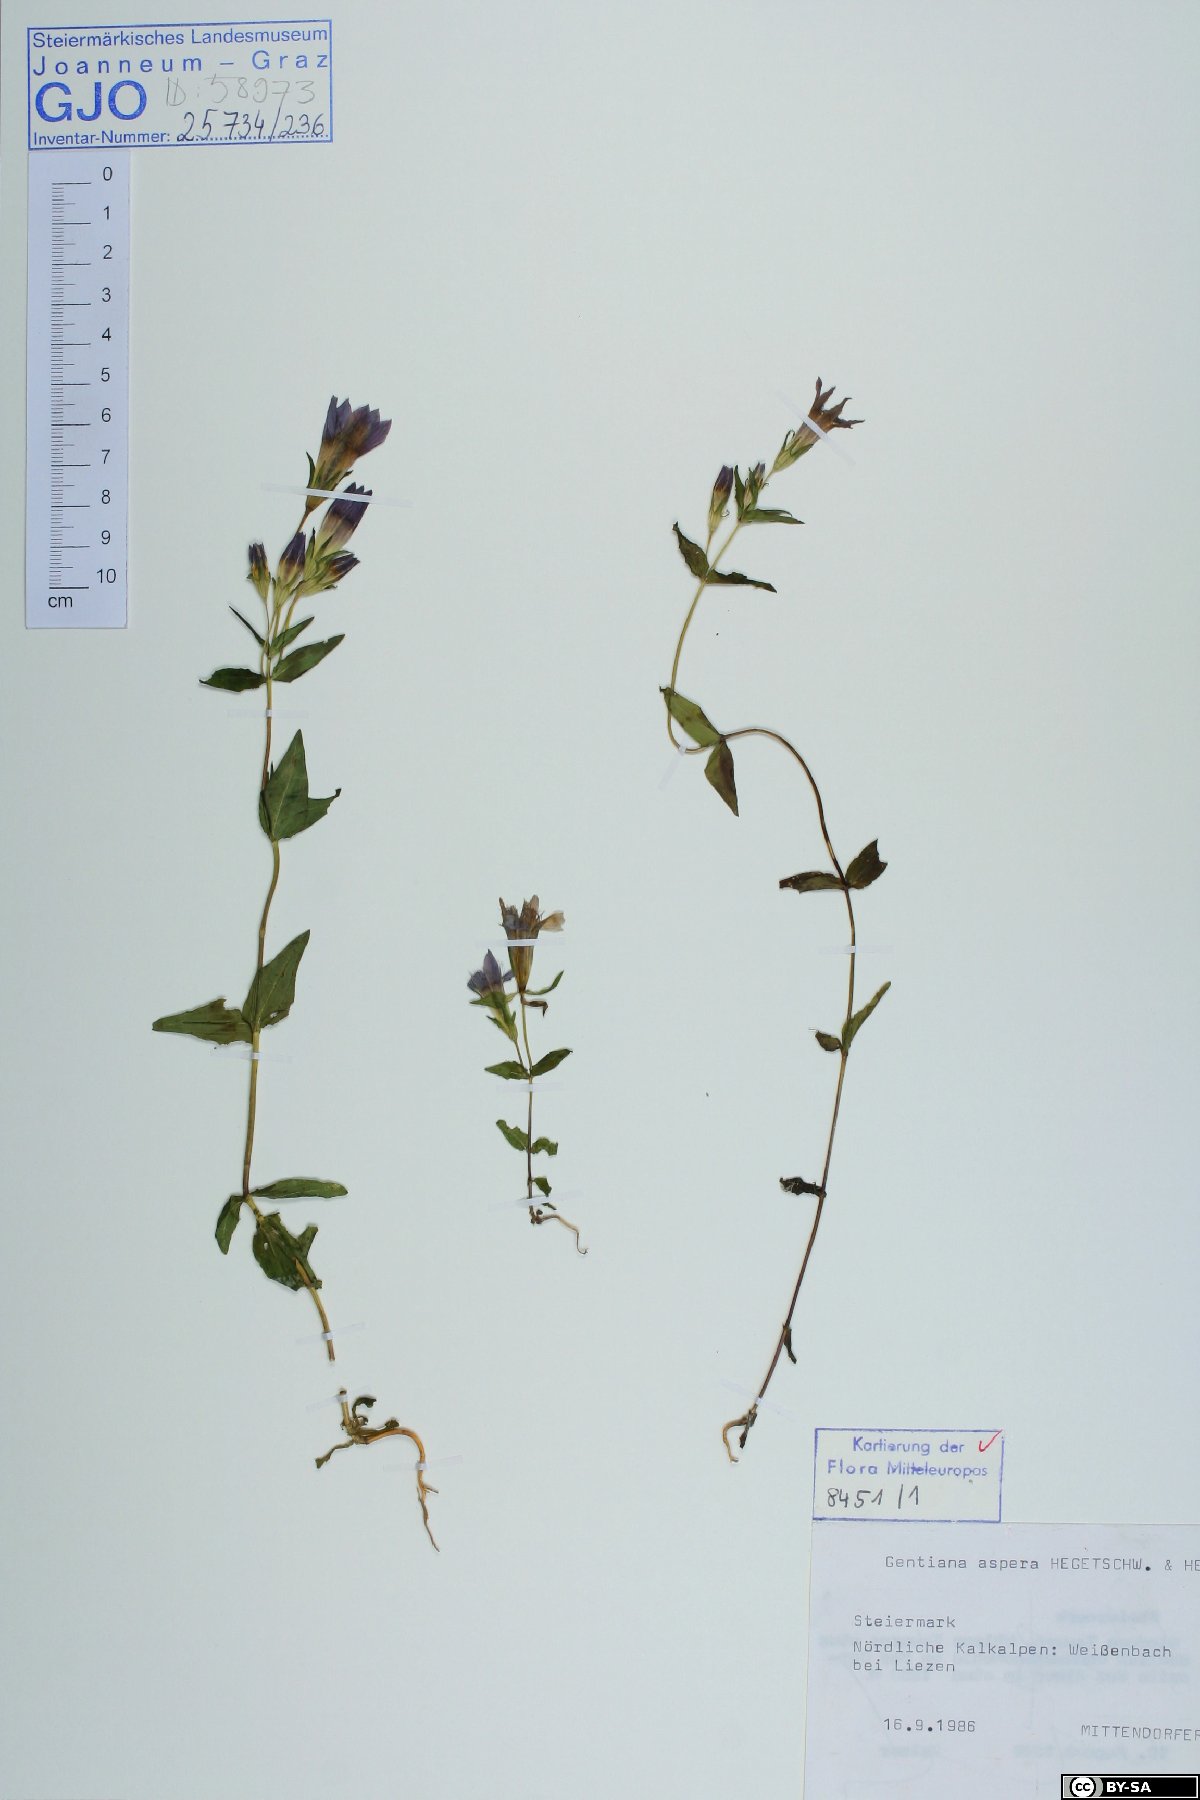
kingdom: Plantae
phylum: Tracheophyta
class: Magnoliopsida
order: Gentianales
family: Gentianaceae
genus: Gentianella
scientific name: Gentianella obtusifolia
